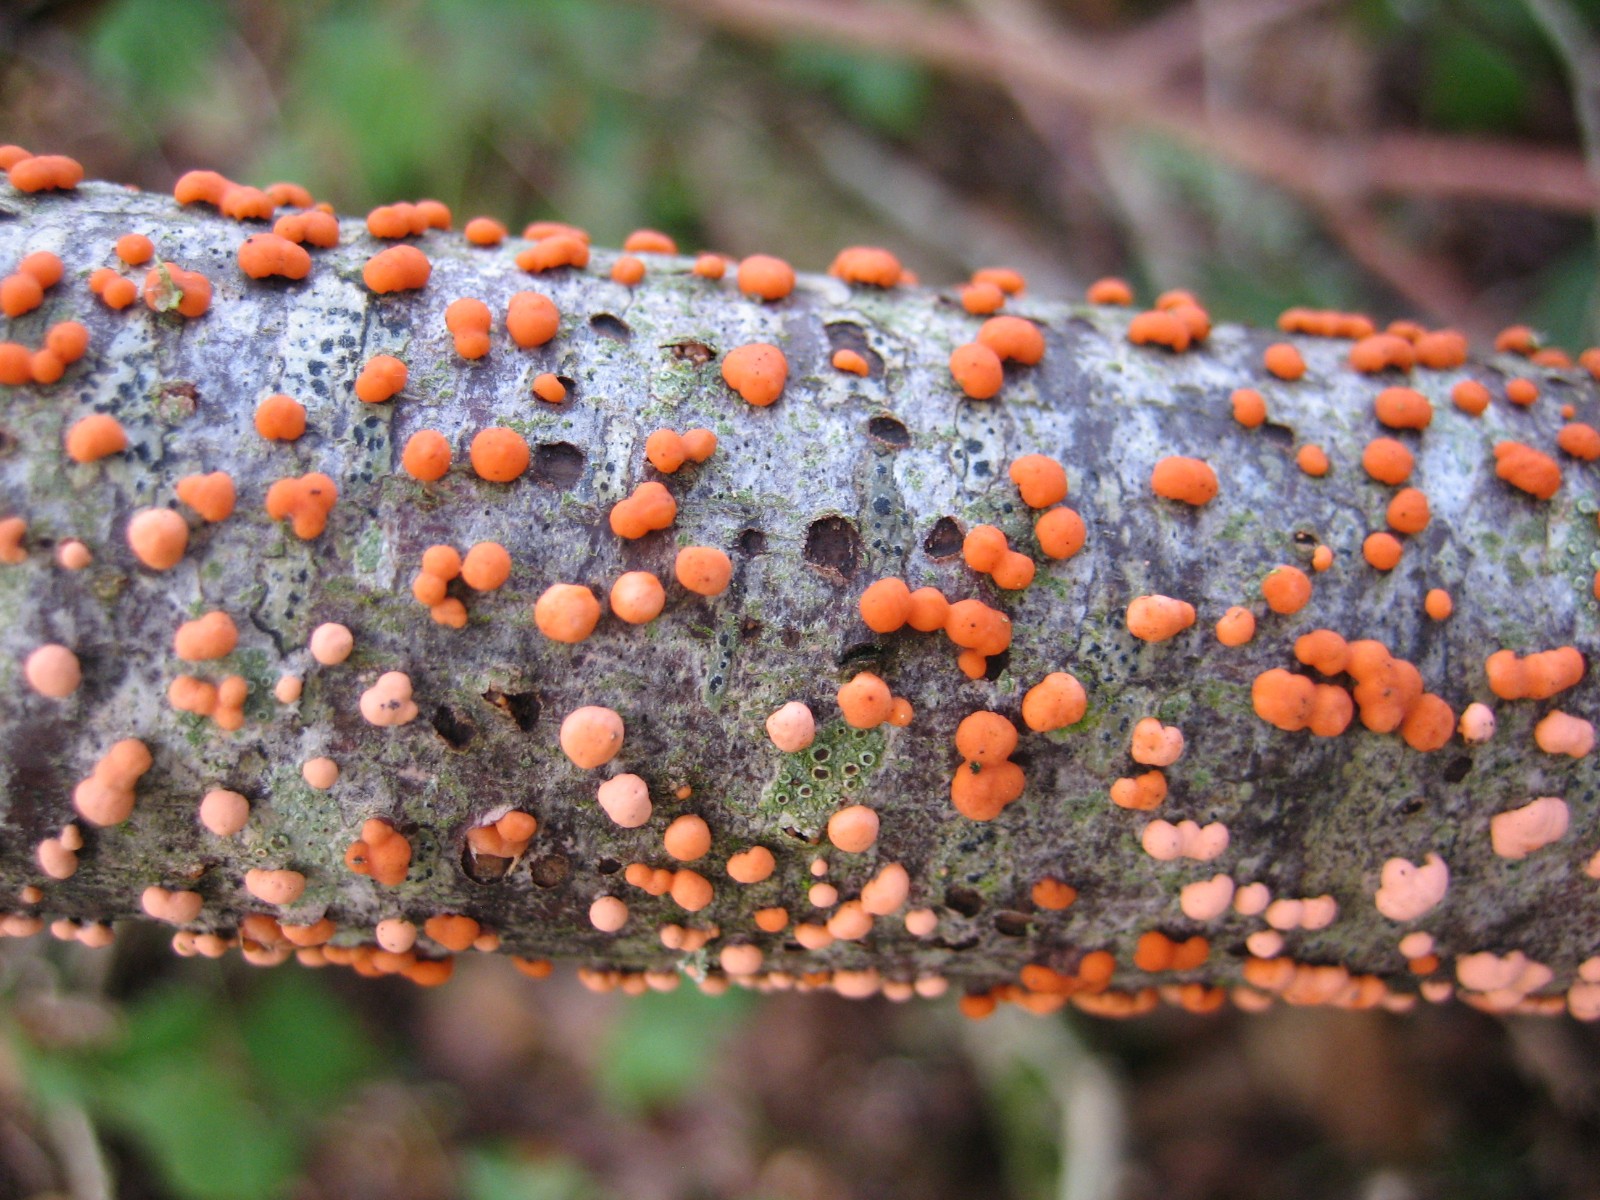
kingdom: Fungi
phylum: Ascomycota
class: Sordariomycetes
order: Hypocreales
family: Nectriaceae
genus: Nectria
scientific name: Nectria cinnabarina
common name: almindelig cinnobersvamp
